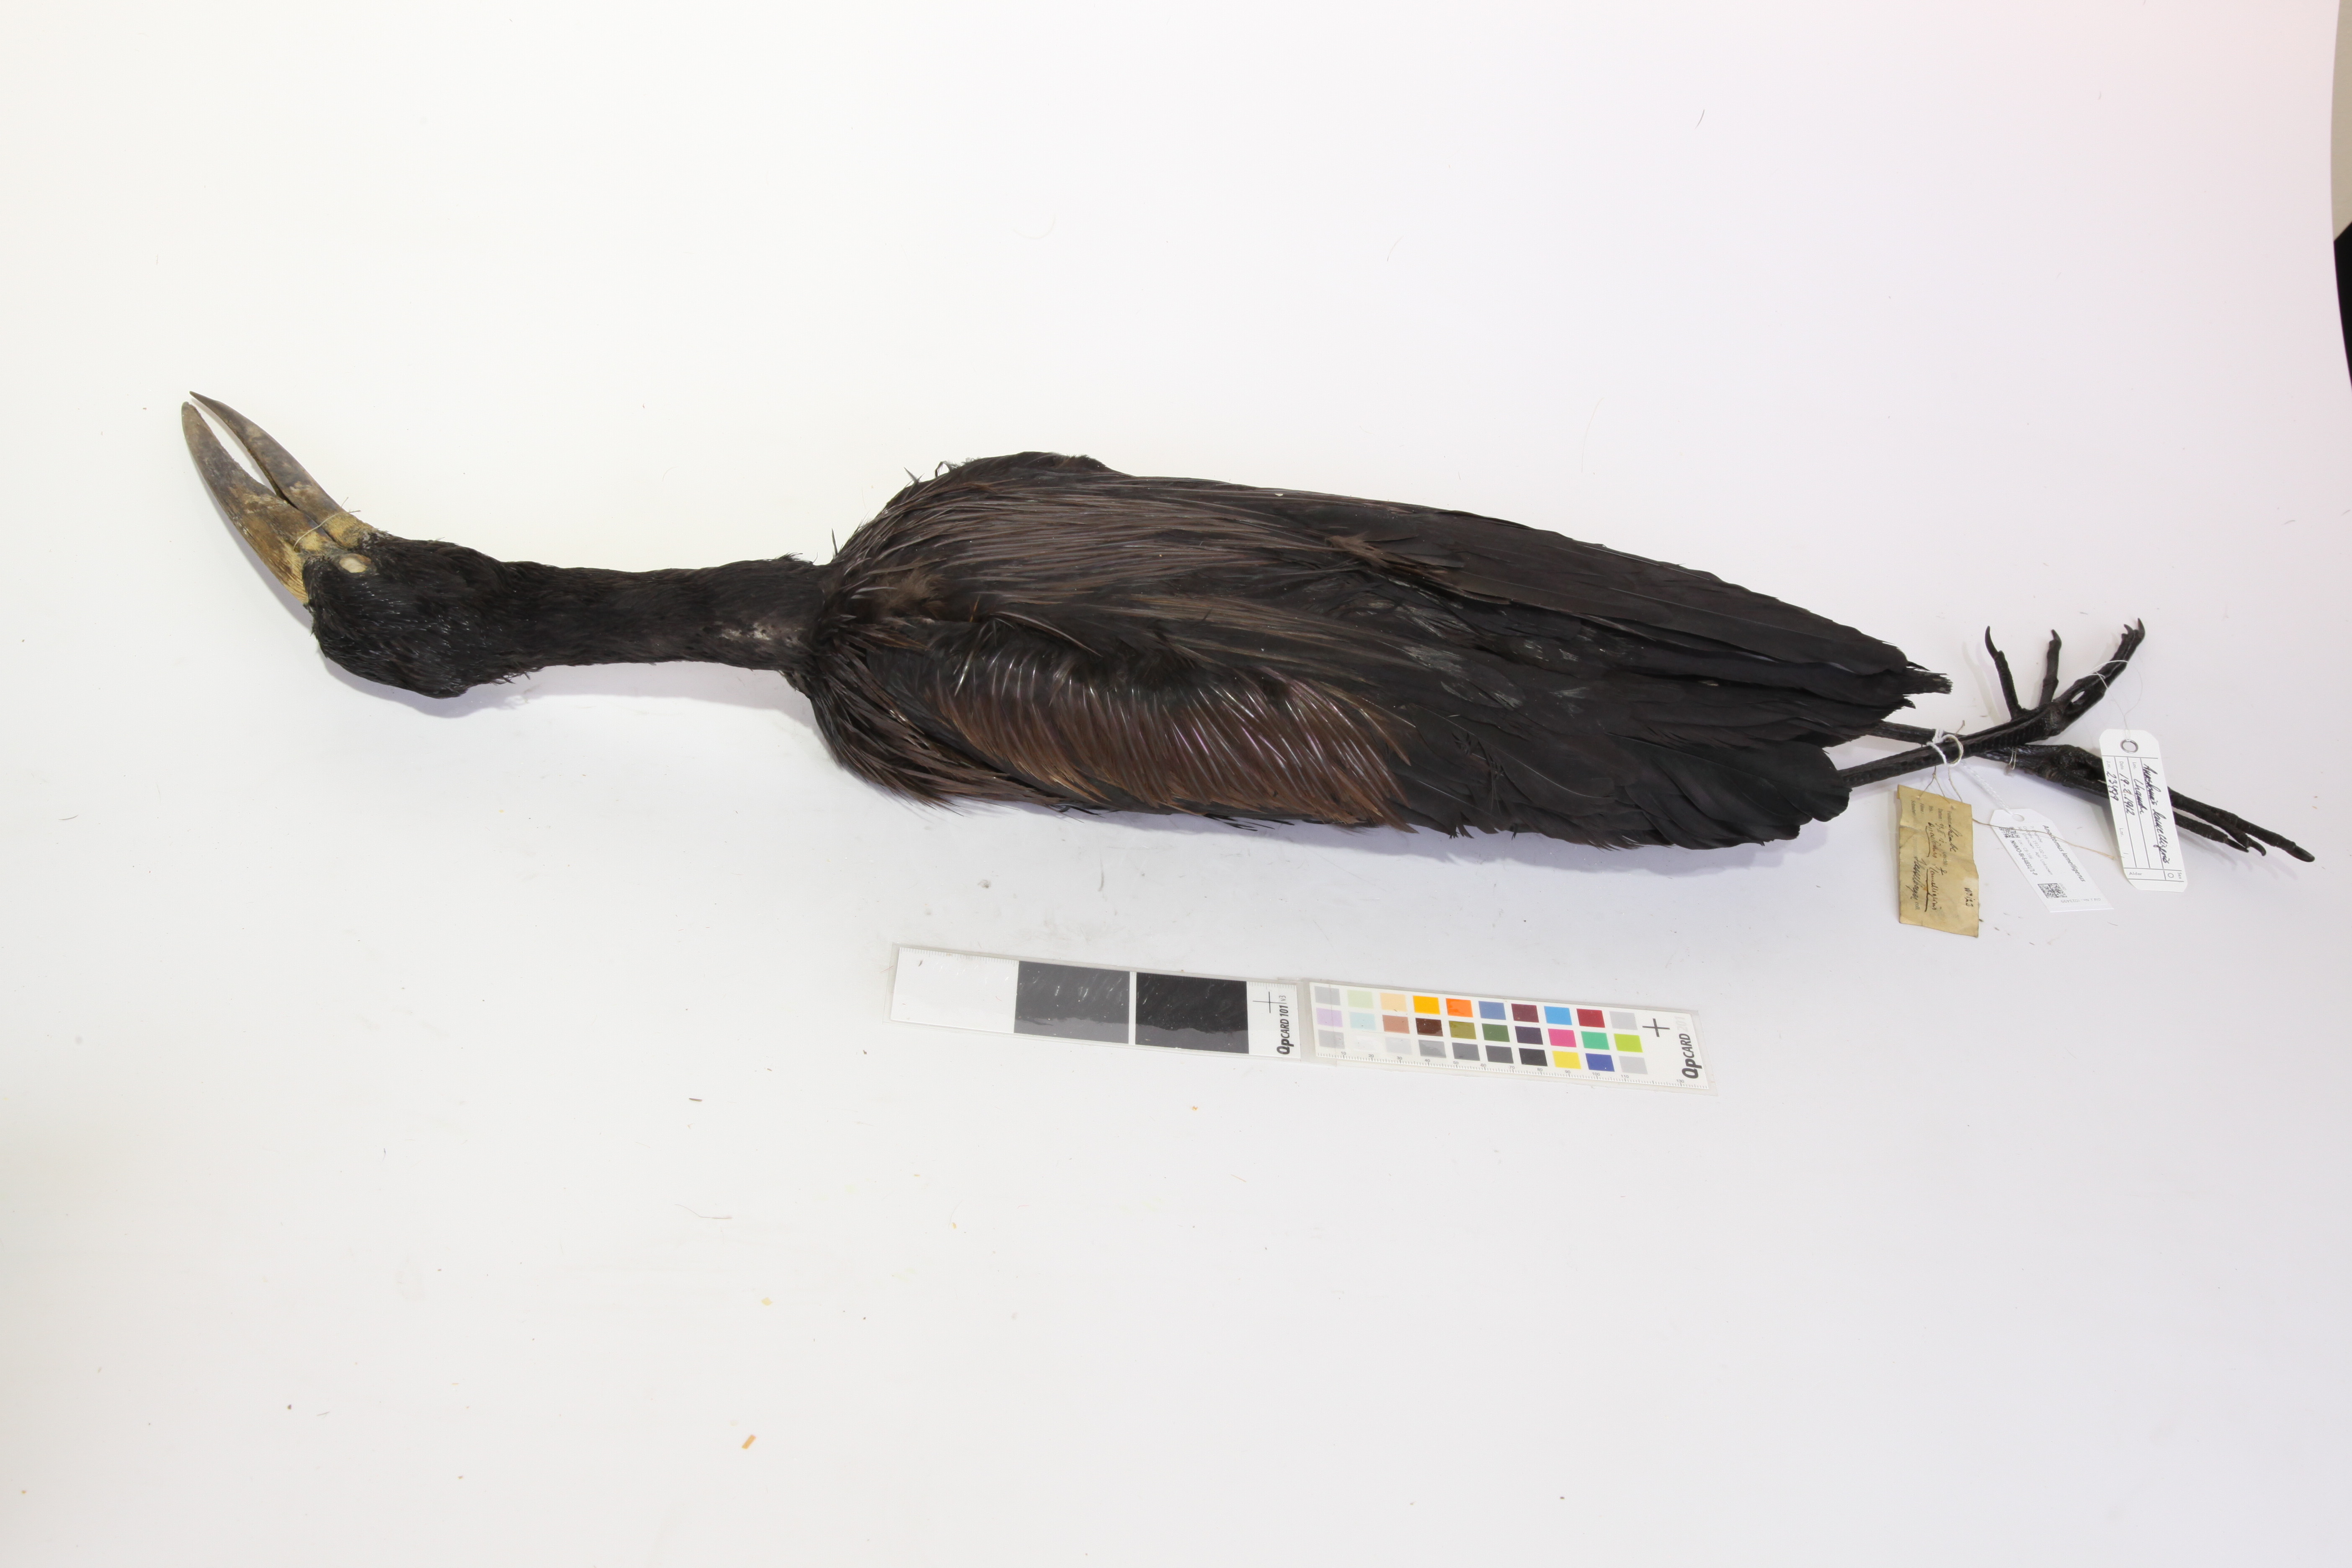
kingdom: Animalia
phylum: Chordata
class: Aves
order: Ciconiiformes
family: Ciconiidae
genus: Anastomus
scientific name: Anastomus lamelligerus
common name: African openbill
